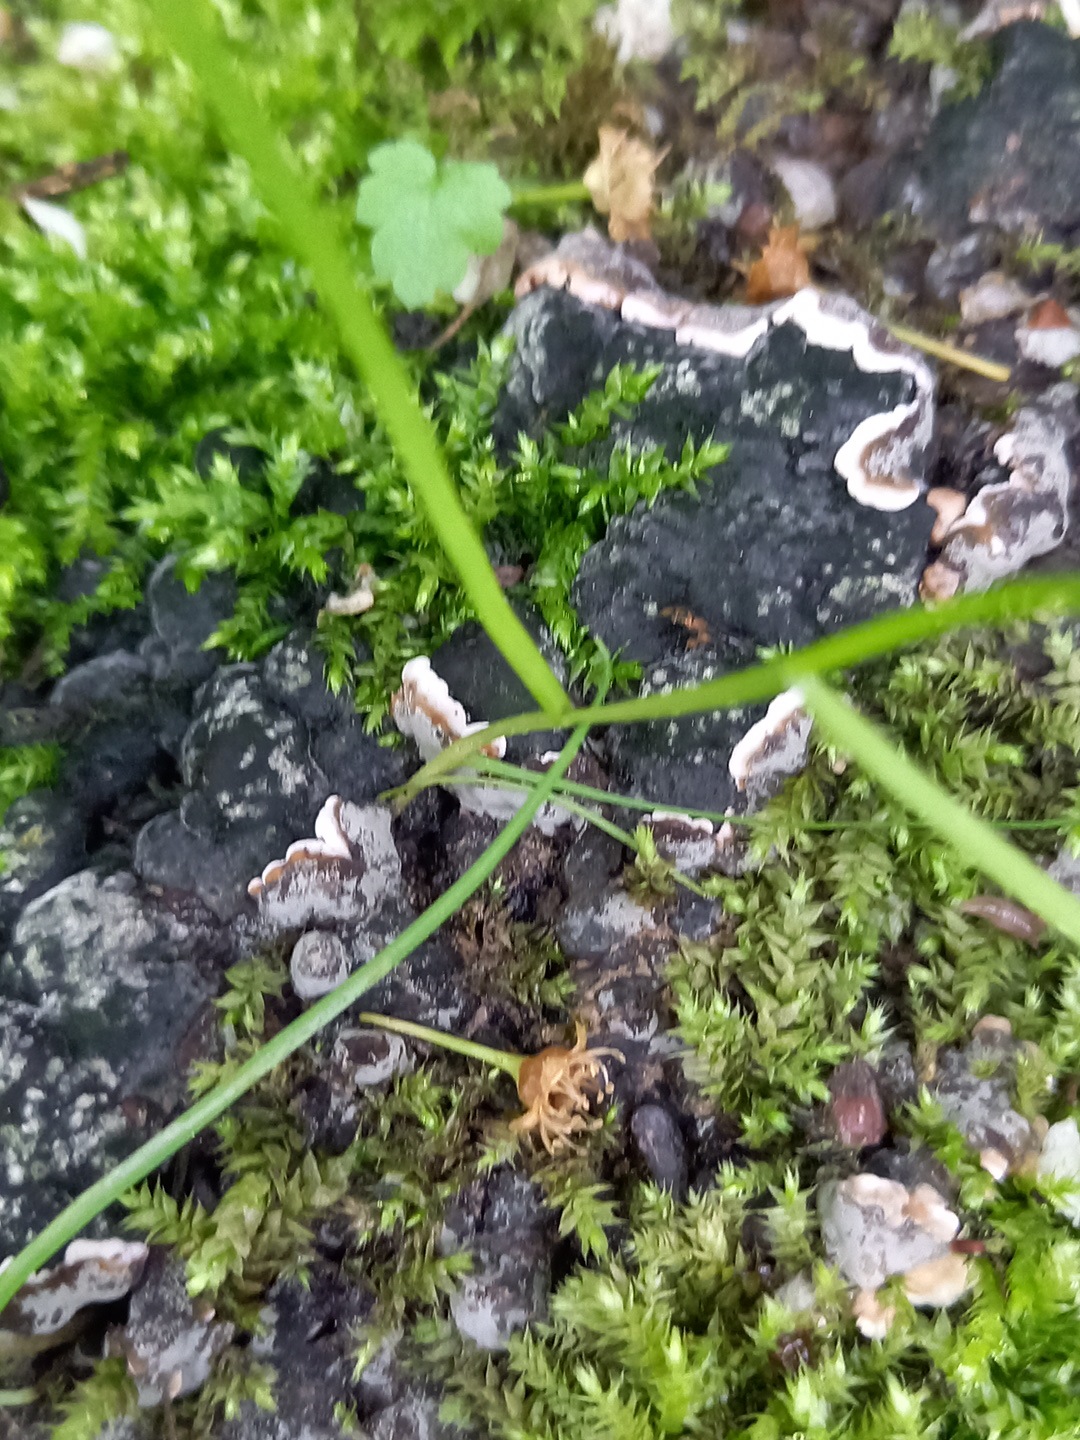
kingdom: Fungi
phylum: Ascomycota
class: Sordariomycetes
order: Xylariales
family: Xylariaceae
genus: Kretzschmaria
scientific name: Kretzschmaria deusta
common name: stor kulsvamp
